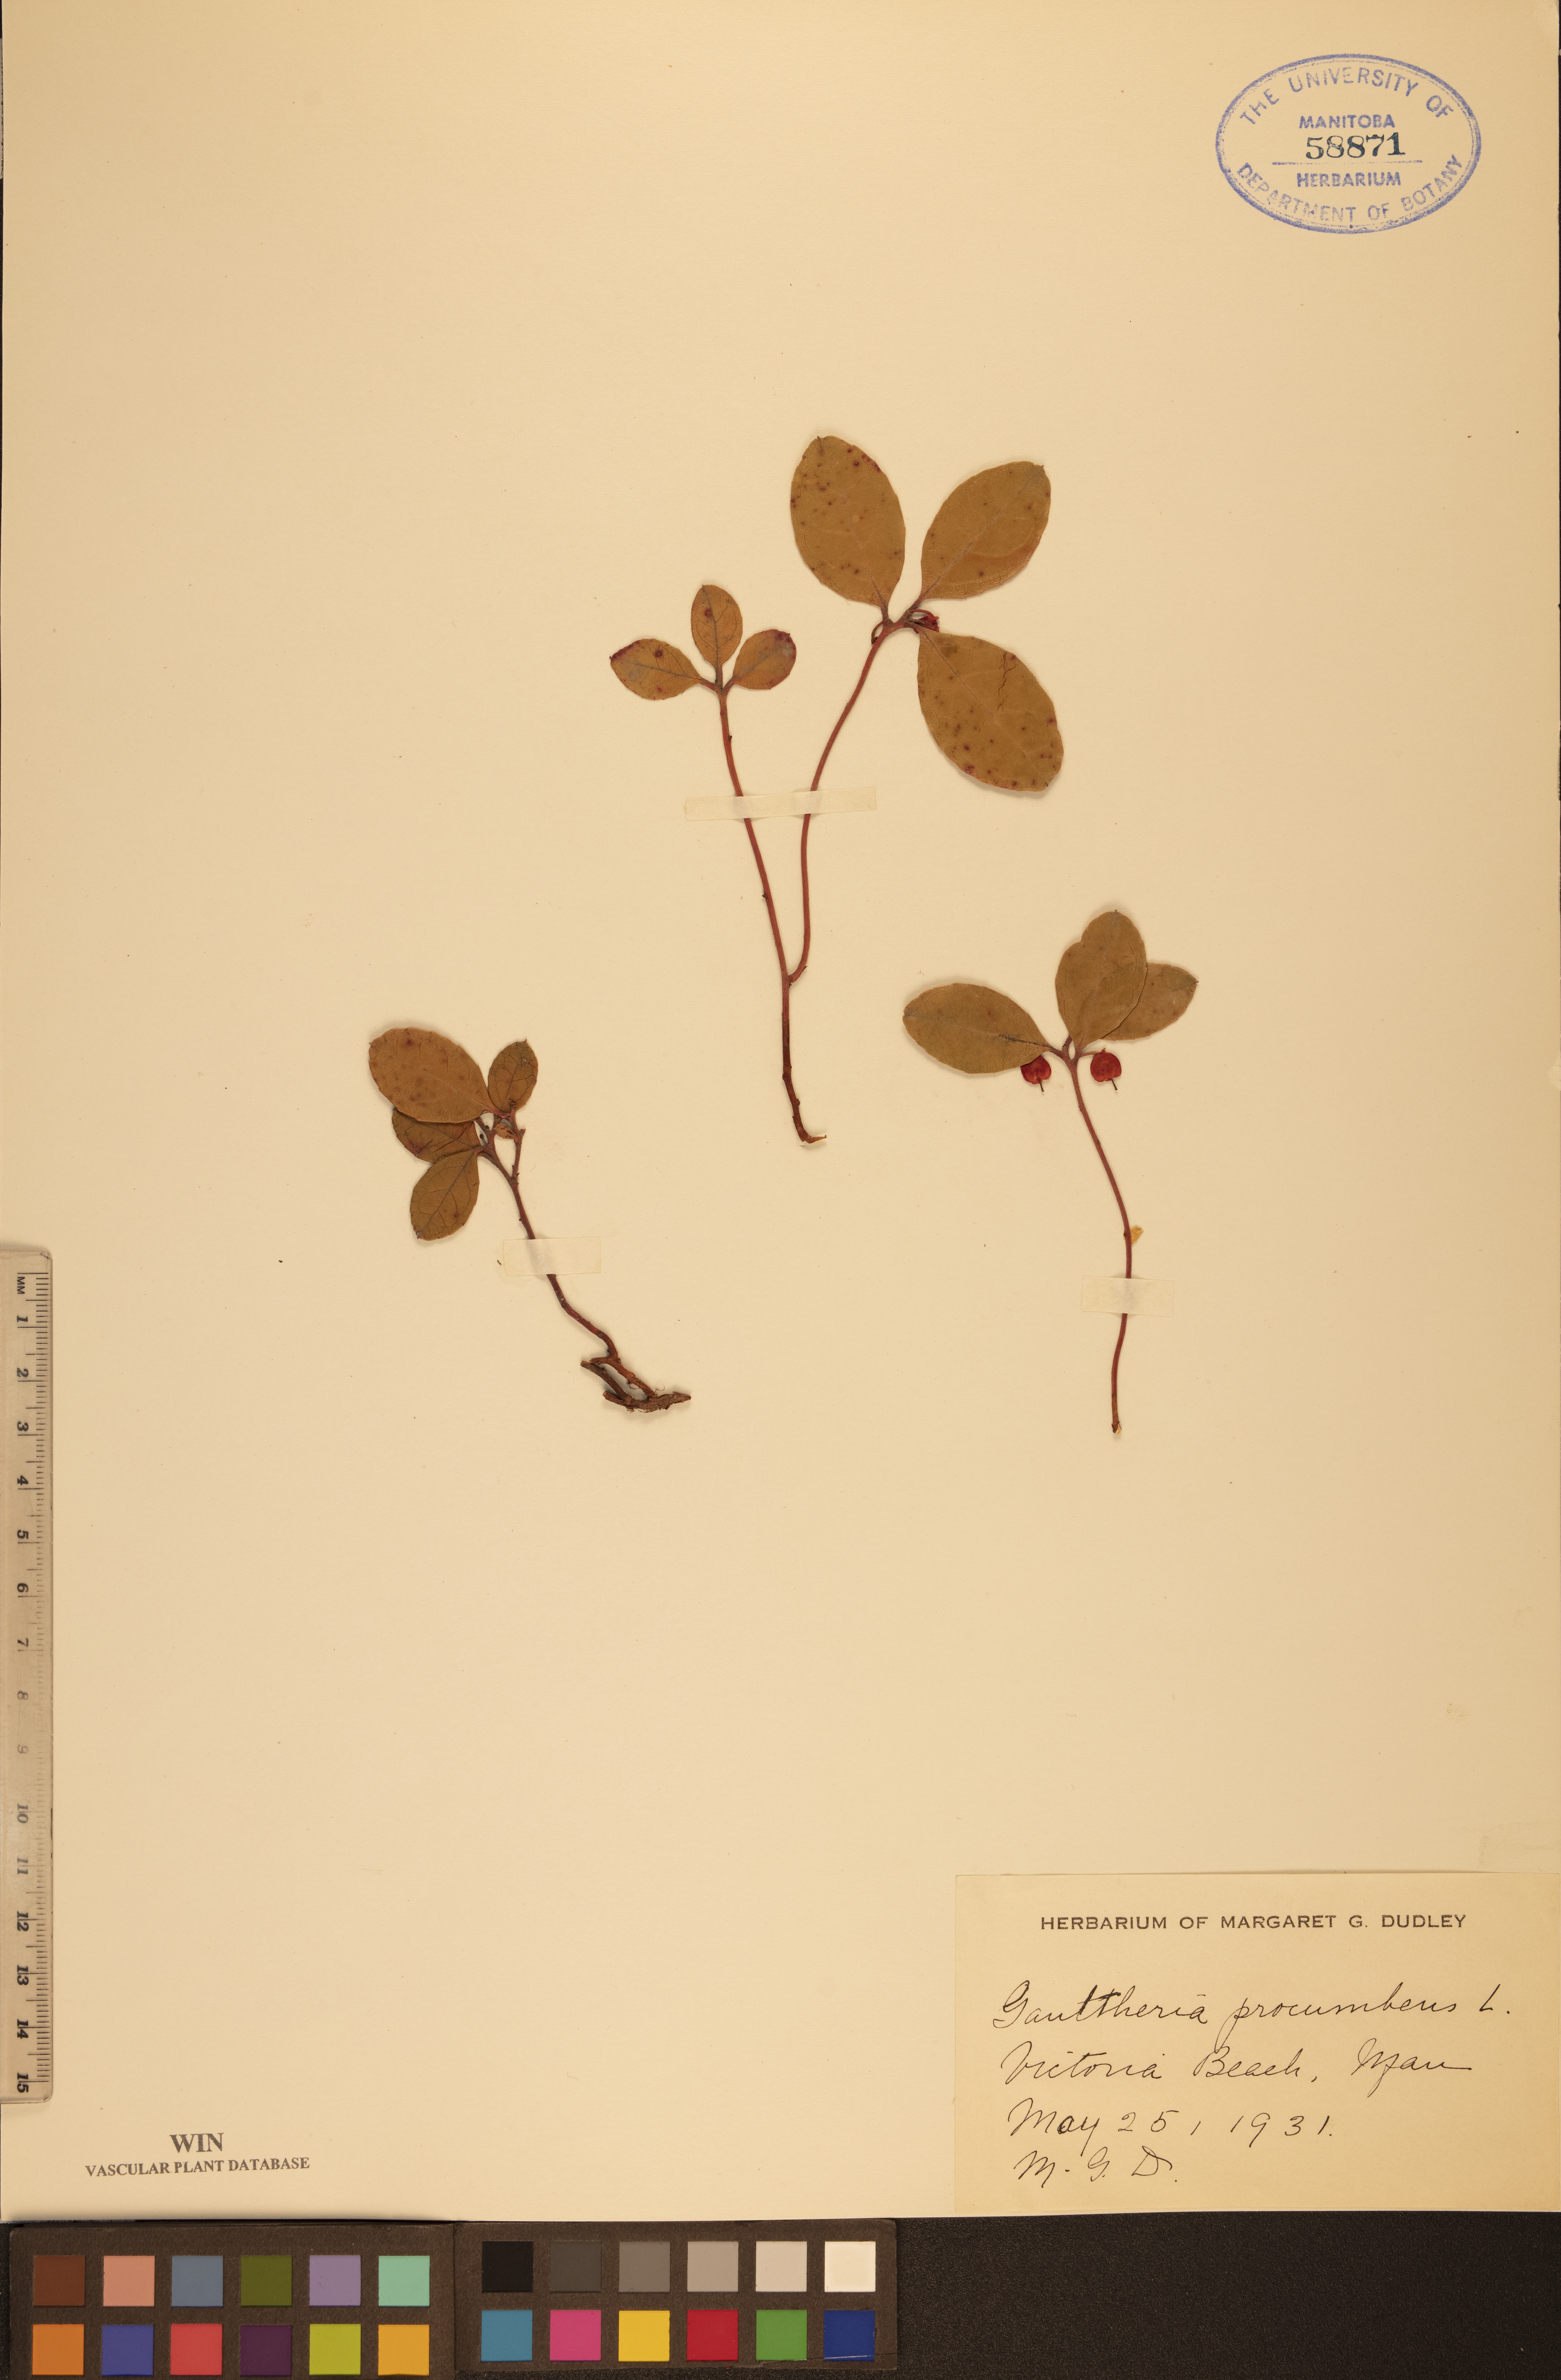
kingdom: Plantae
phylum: Tracheophyta
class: Magnoliopsida
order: Ericales
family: Ericaceae
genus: Gaultheria
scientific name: Gaultheria procumbens
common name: Checkerberry
